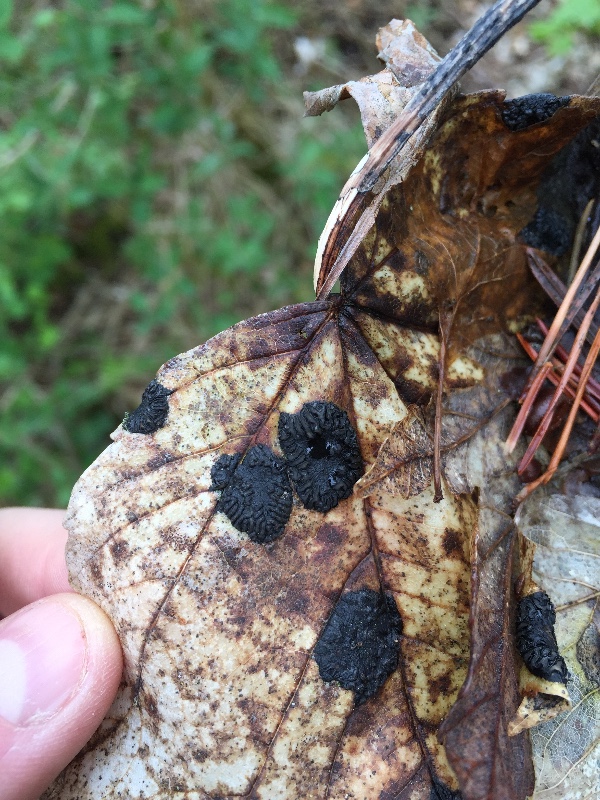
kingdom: Fungi
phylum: Ascomycota
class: Leotiomycetes
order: Rhytismatales
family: Rhytismataceae
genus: Rhytisma
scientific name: Rhytisma acerinum
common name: ahorn-rynkeplet
